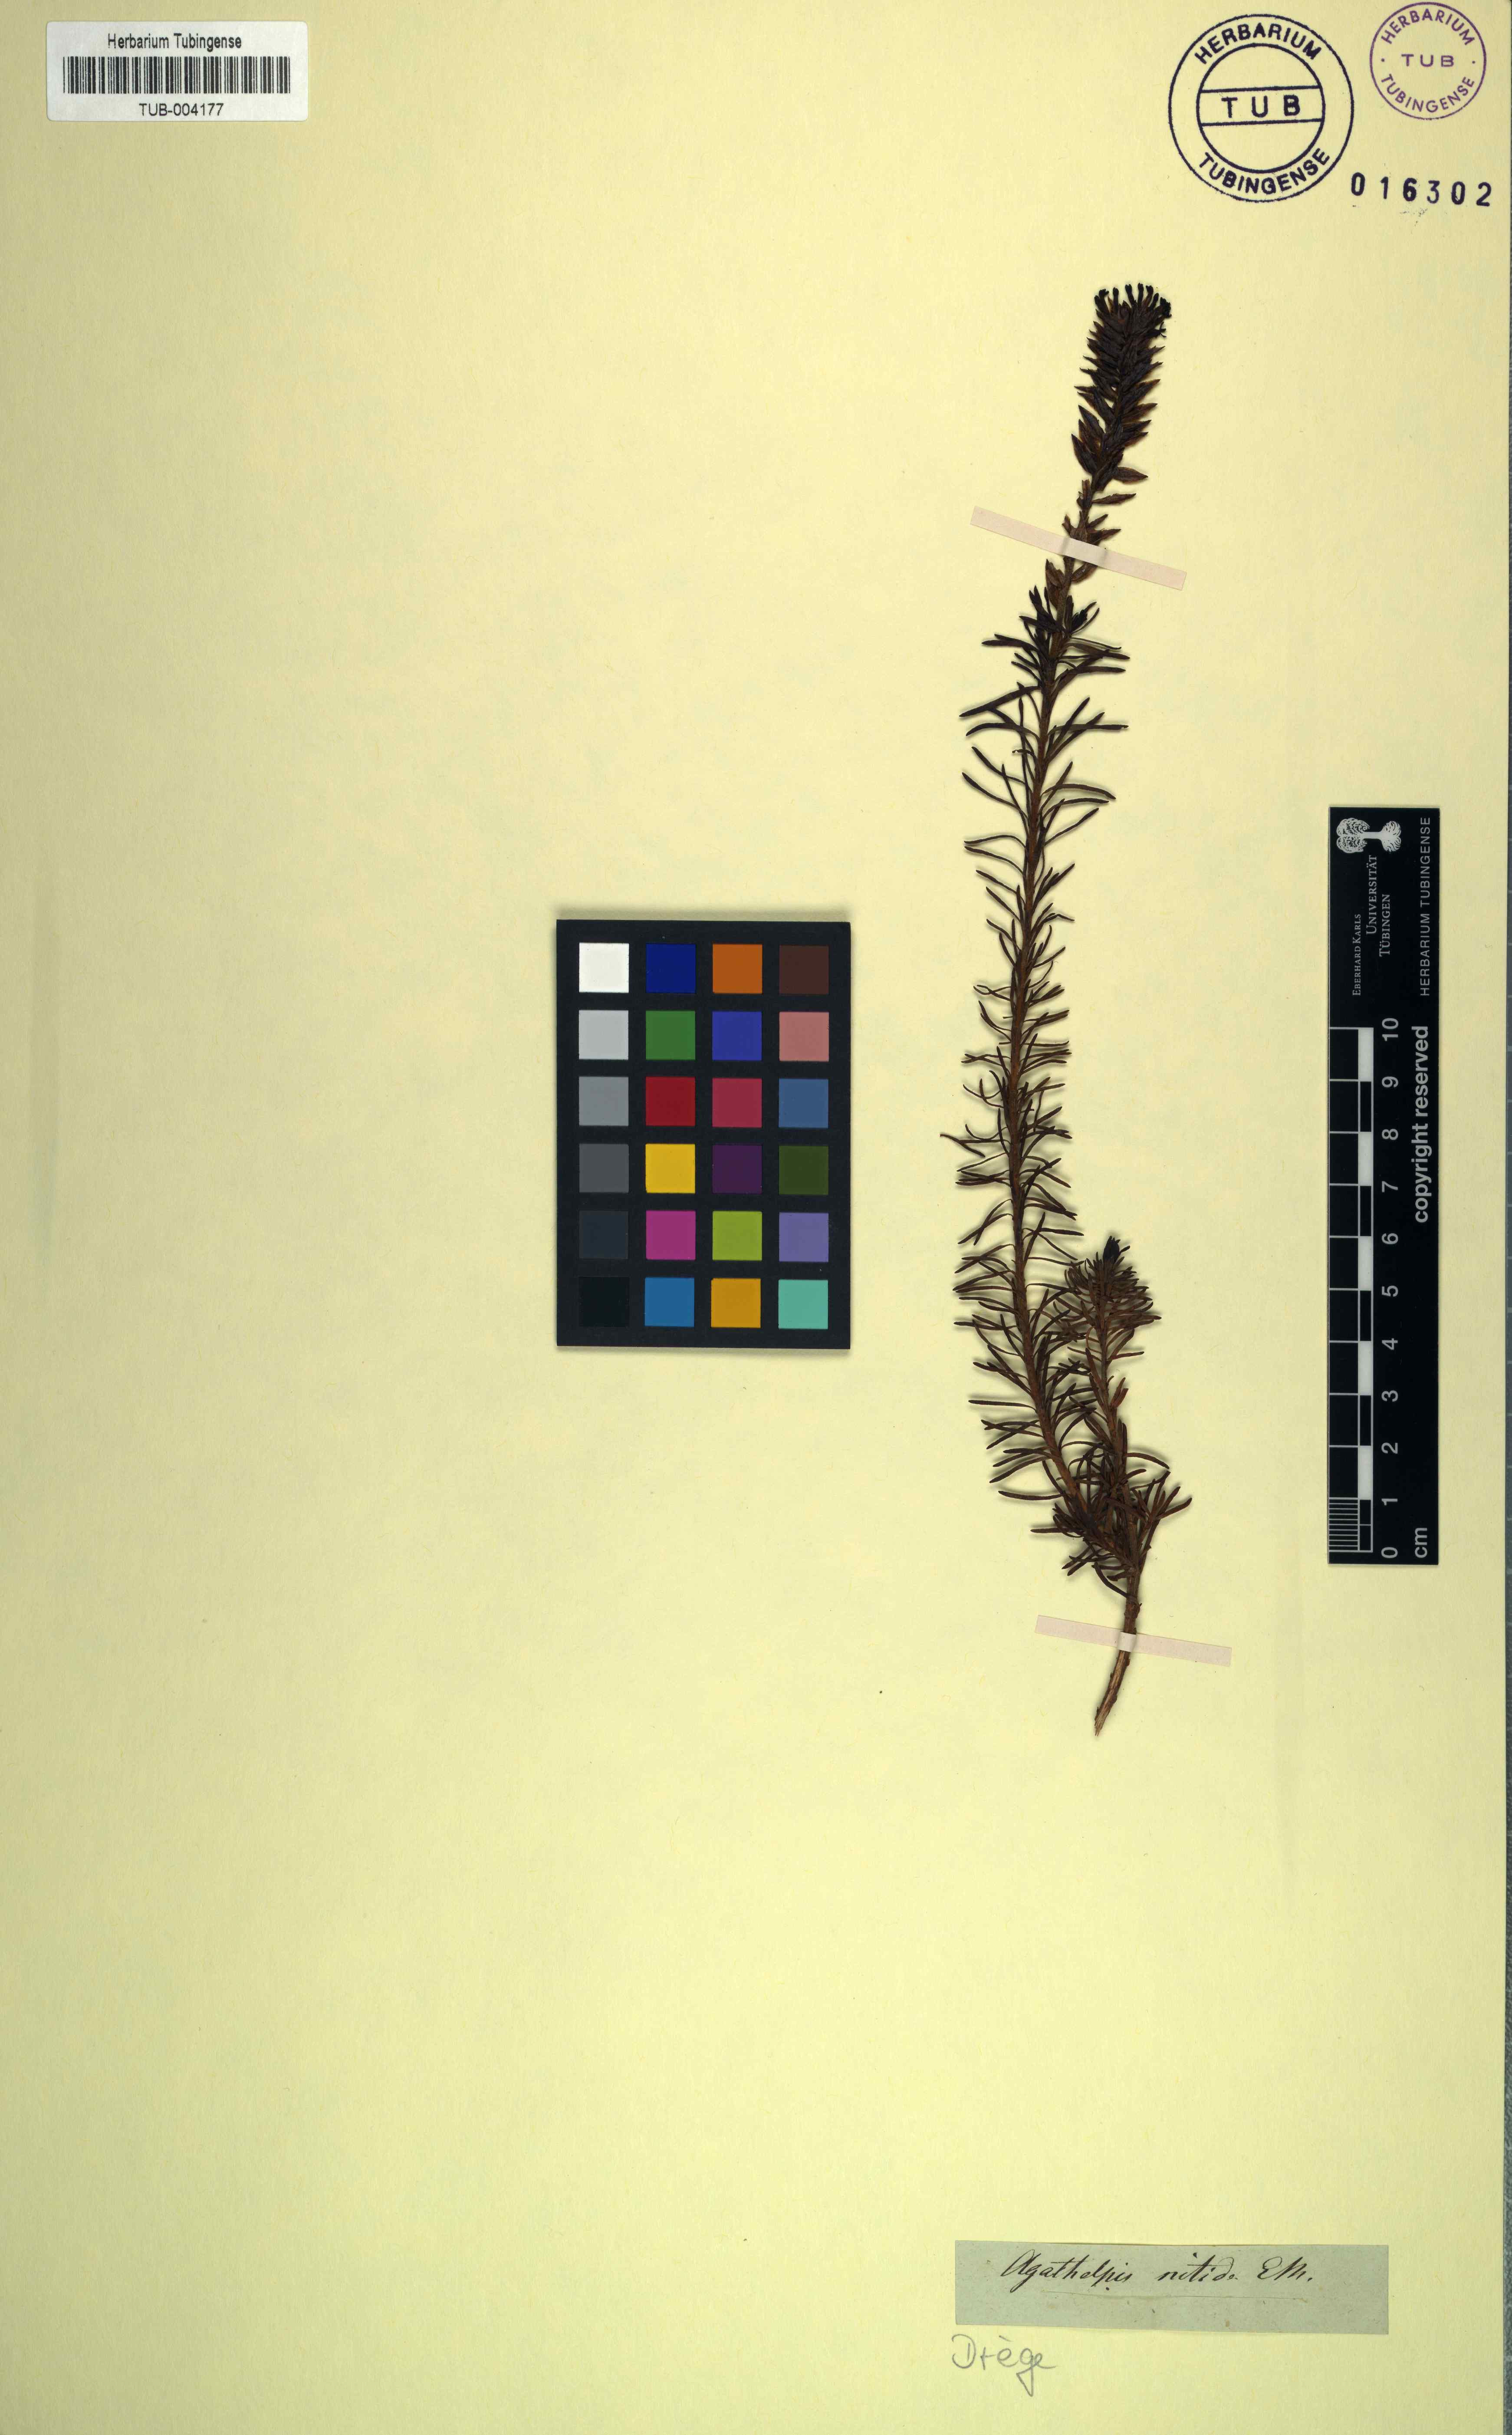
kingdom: Plantae
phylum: Tracheophyta
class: Magnoliopsida
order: Lamiales
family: Scrophulariaceae
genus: Microdon
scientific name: Microdon nitidus
